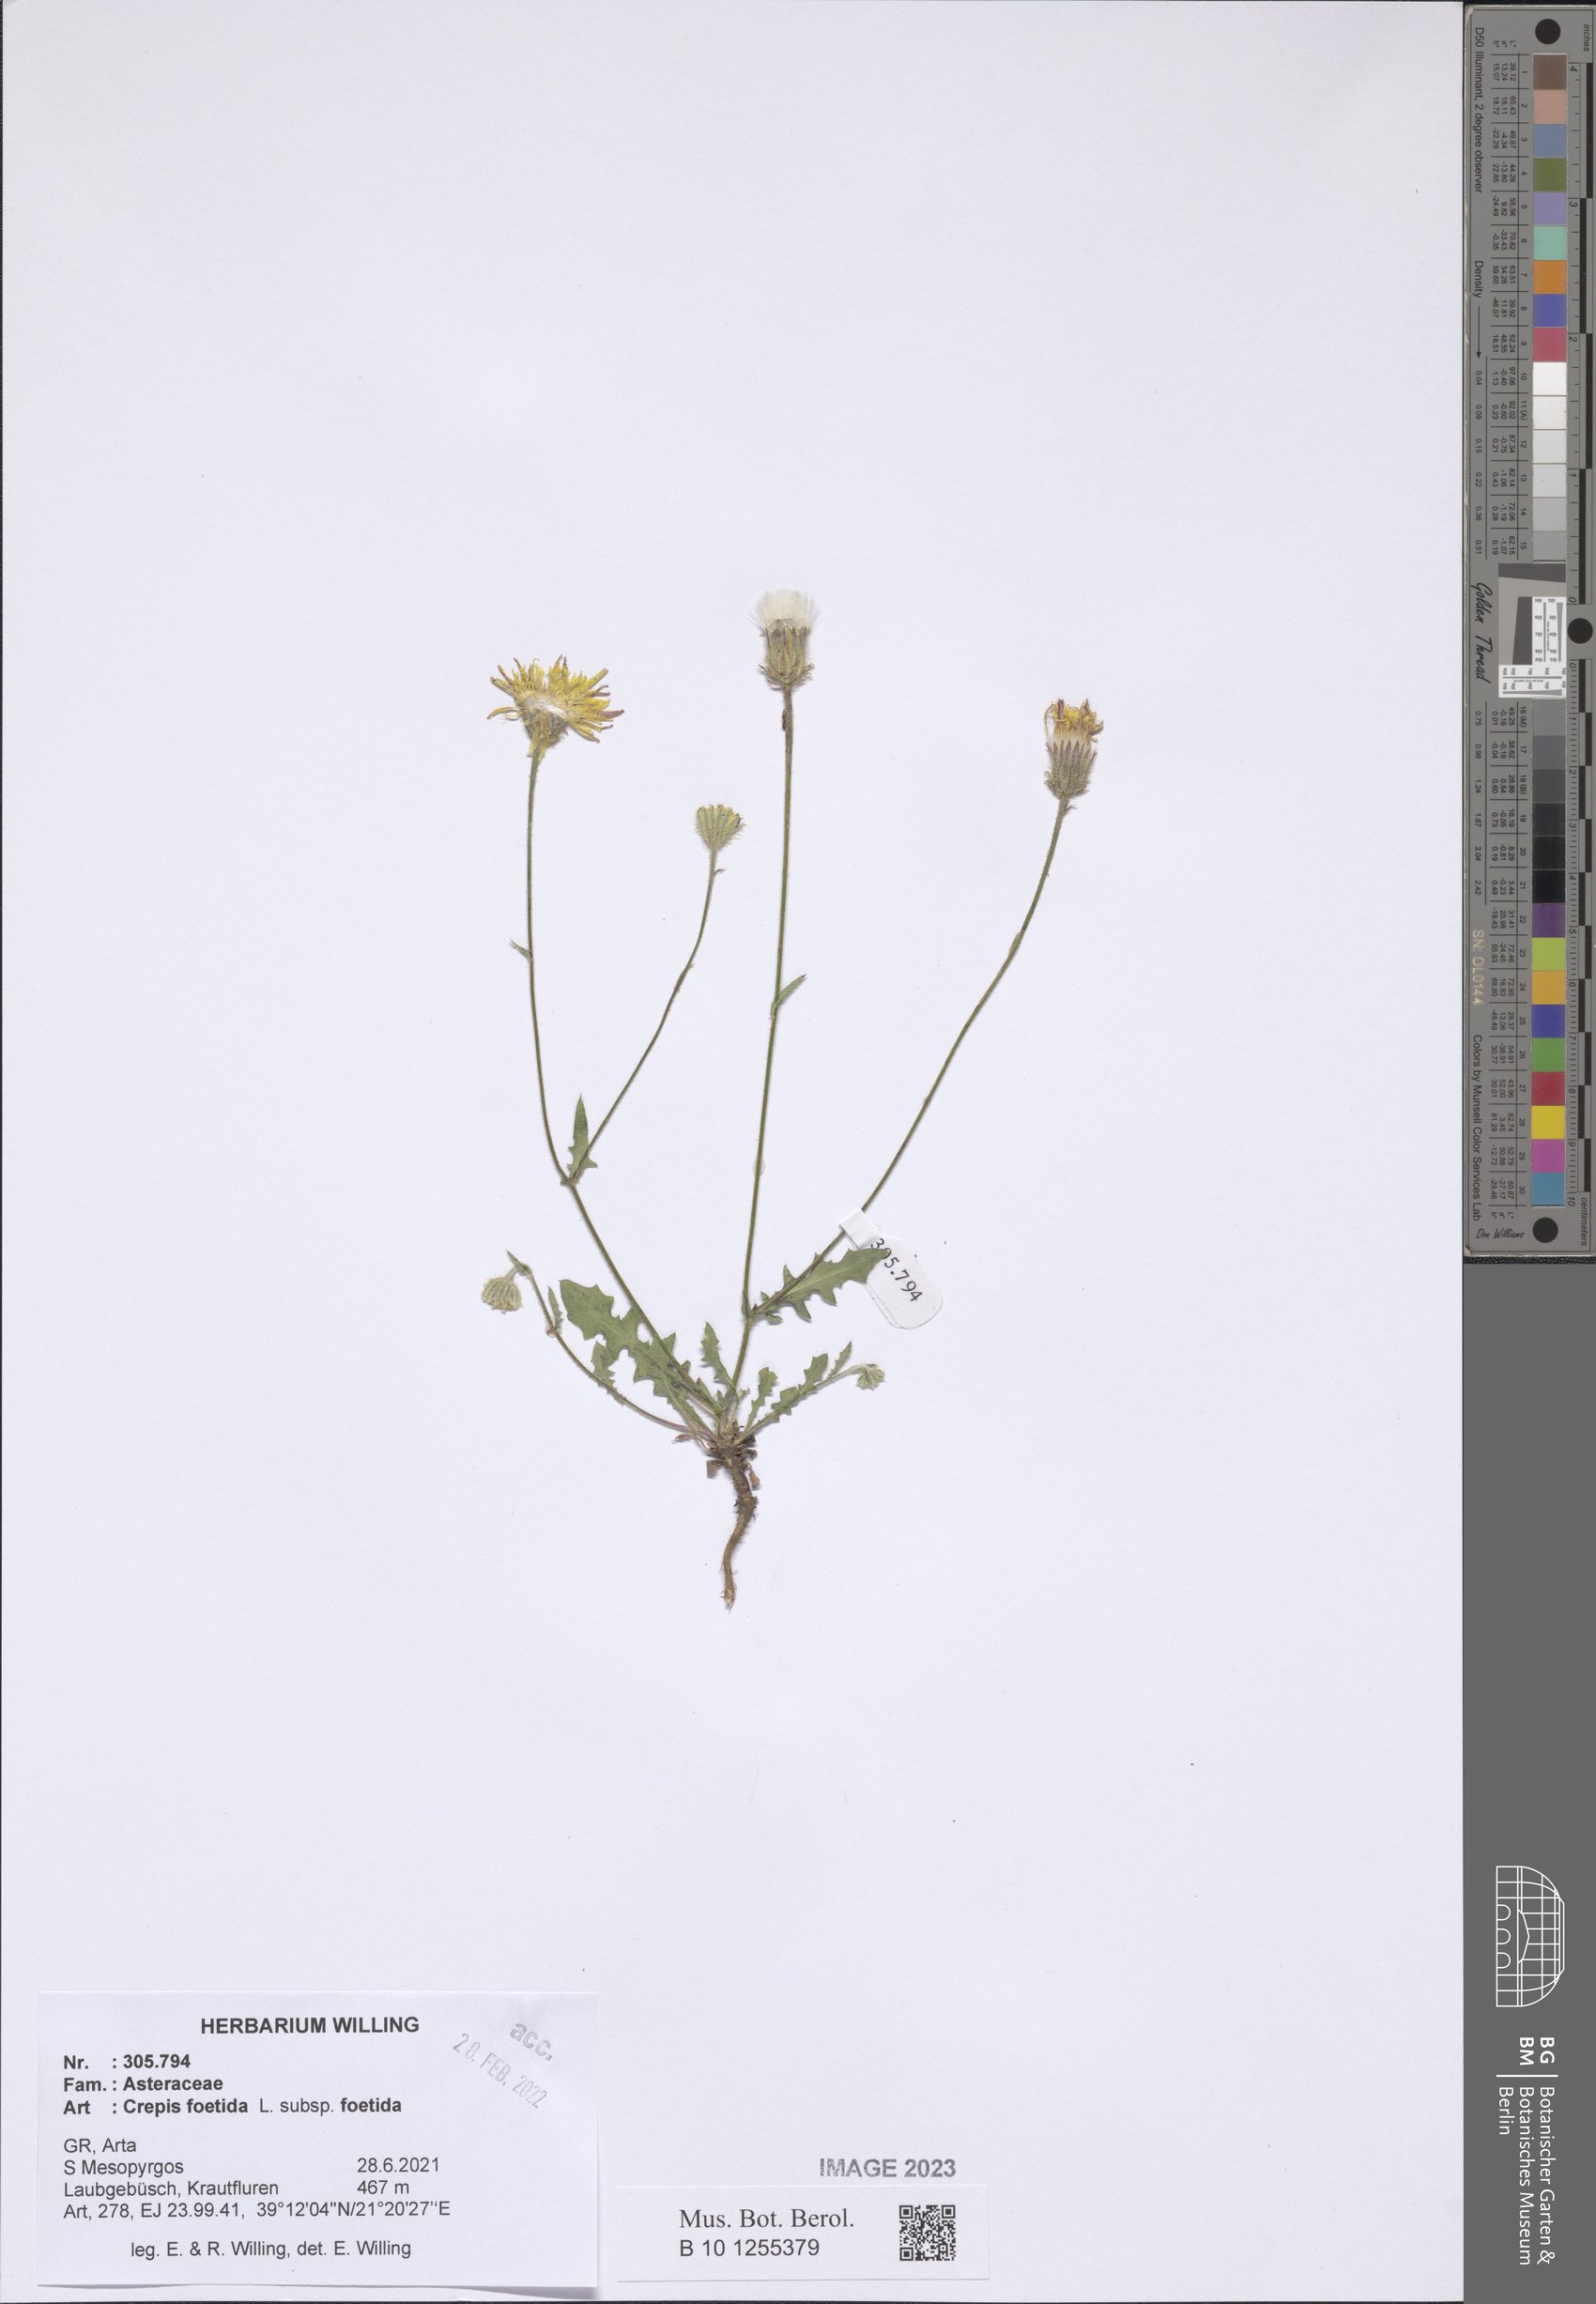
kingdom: Plantae
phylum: Tracheophyta
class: Magnoliopsida
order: Asterales
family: Asteraceae
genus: Crepis
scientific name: Crepis foetida
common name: Stinking hawk's-beard
